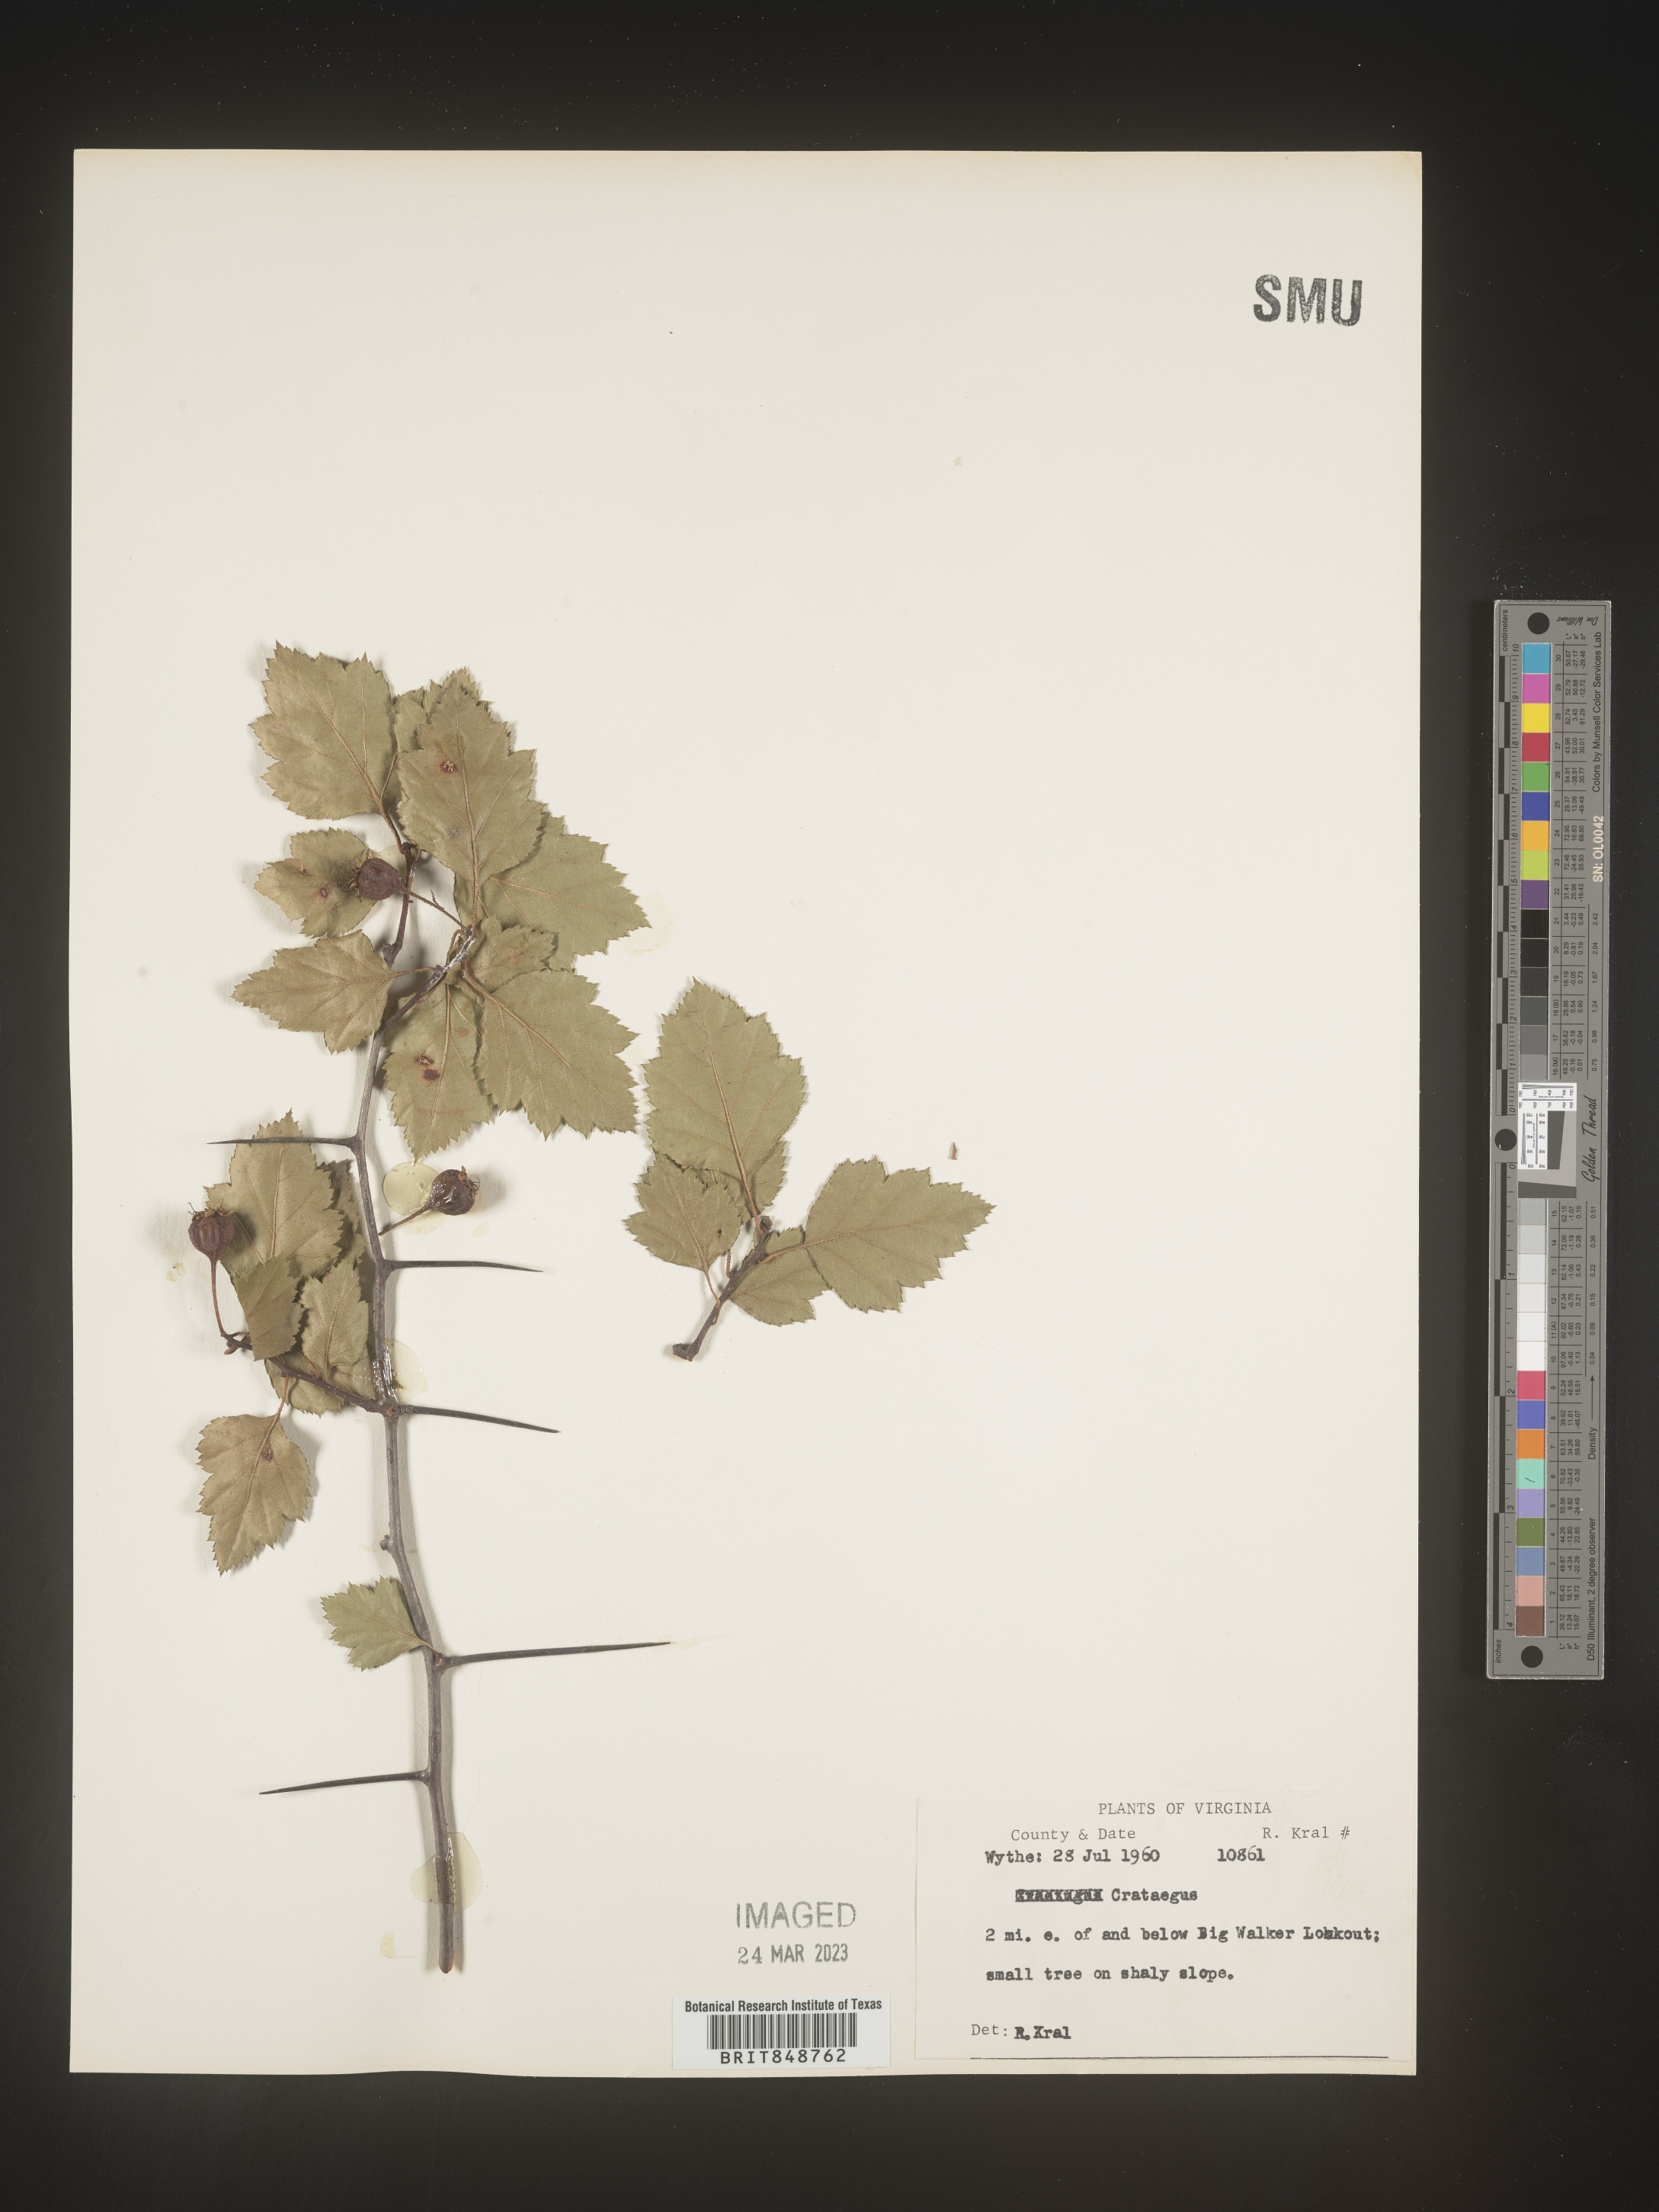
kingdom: Plantae
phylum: Tracheophyta
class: Magnoliopsida
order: Rosales
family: Rosaceae
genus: Crataegus
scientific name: Crataegus
